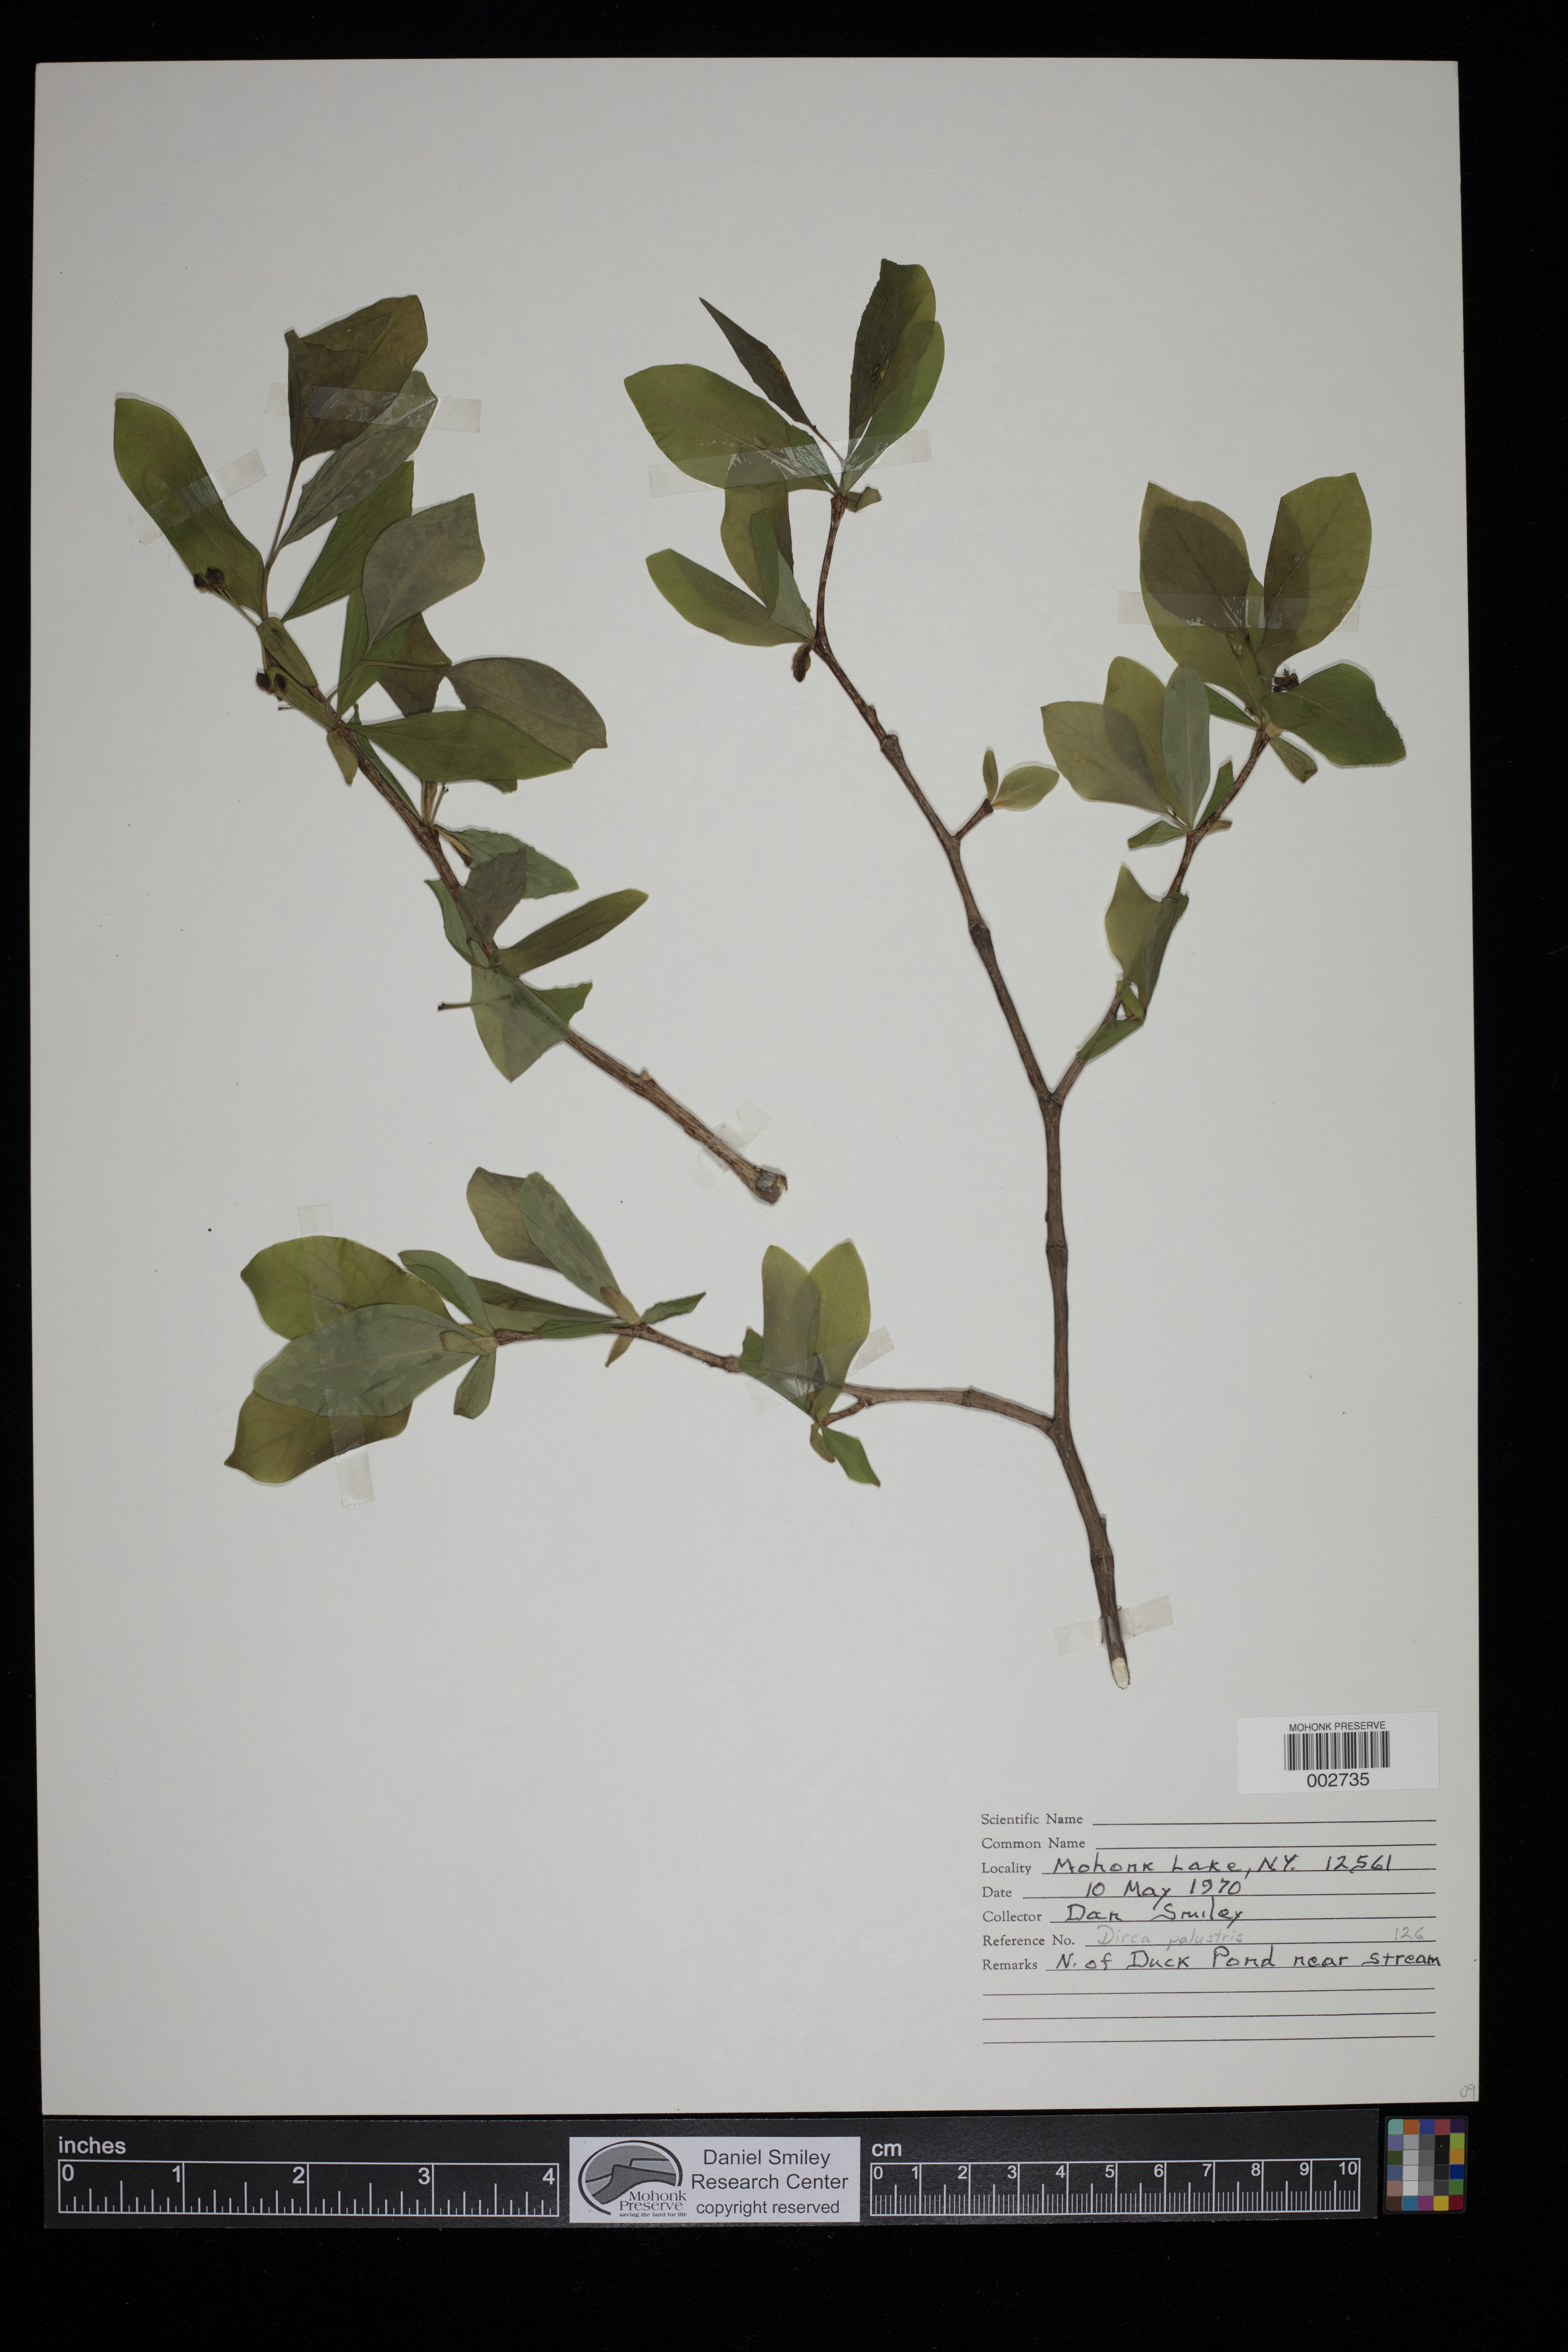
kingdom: Plantae
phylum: Tracheophyta
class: Magnoliopsida
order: Malvales
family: Thymelaeaceae
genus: Dirca
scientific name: Dirca palustris
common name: Leatherwood
